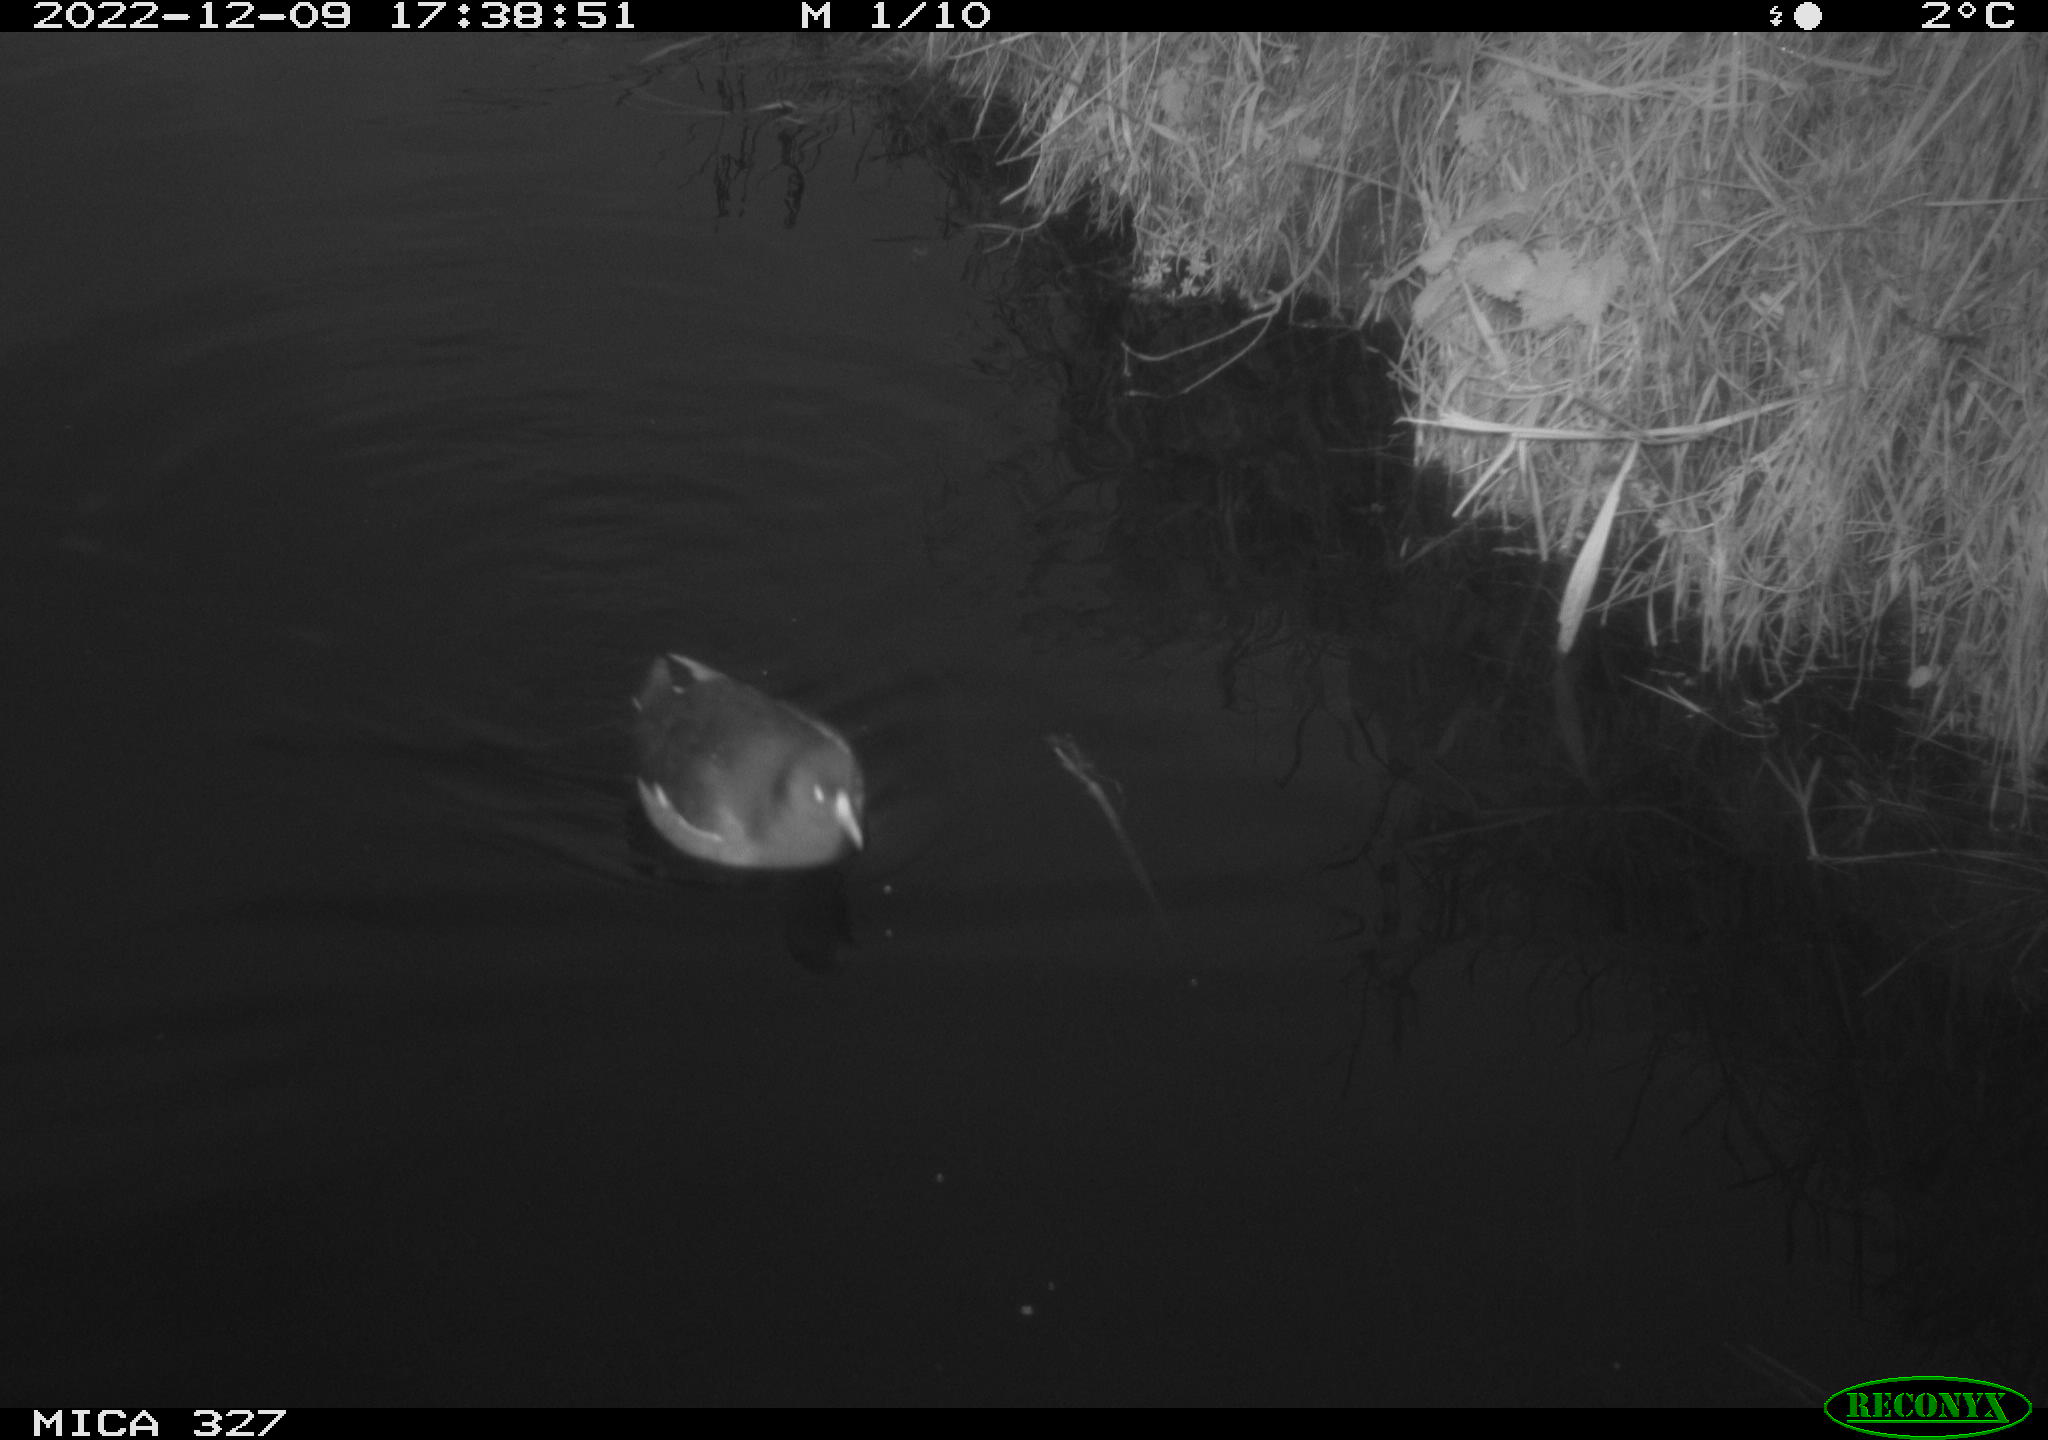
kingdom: Animalia
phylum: Chordata
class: Aves
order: Gruiformes
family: Rallidae
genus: Gallinula
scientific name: Gallinula chloropus
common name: Common moorhen
